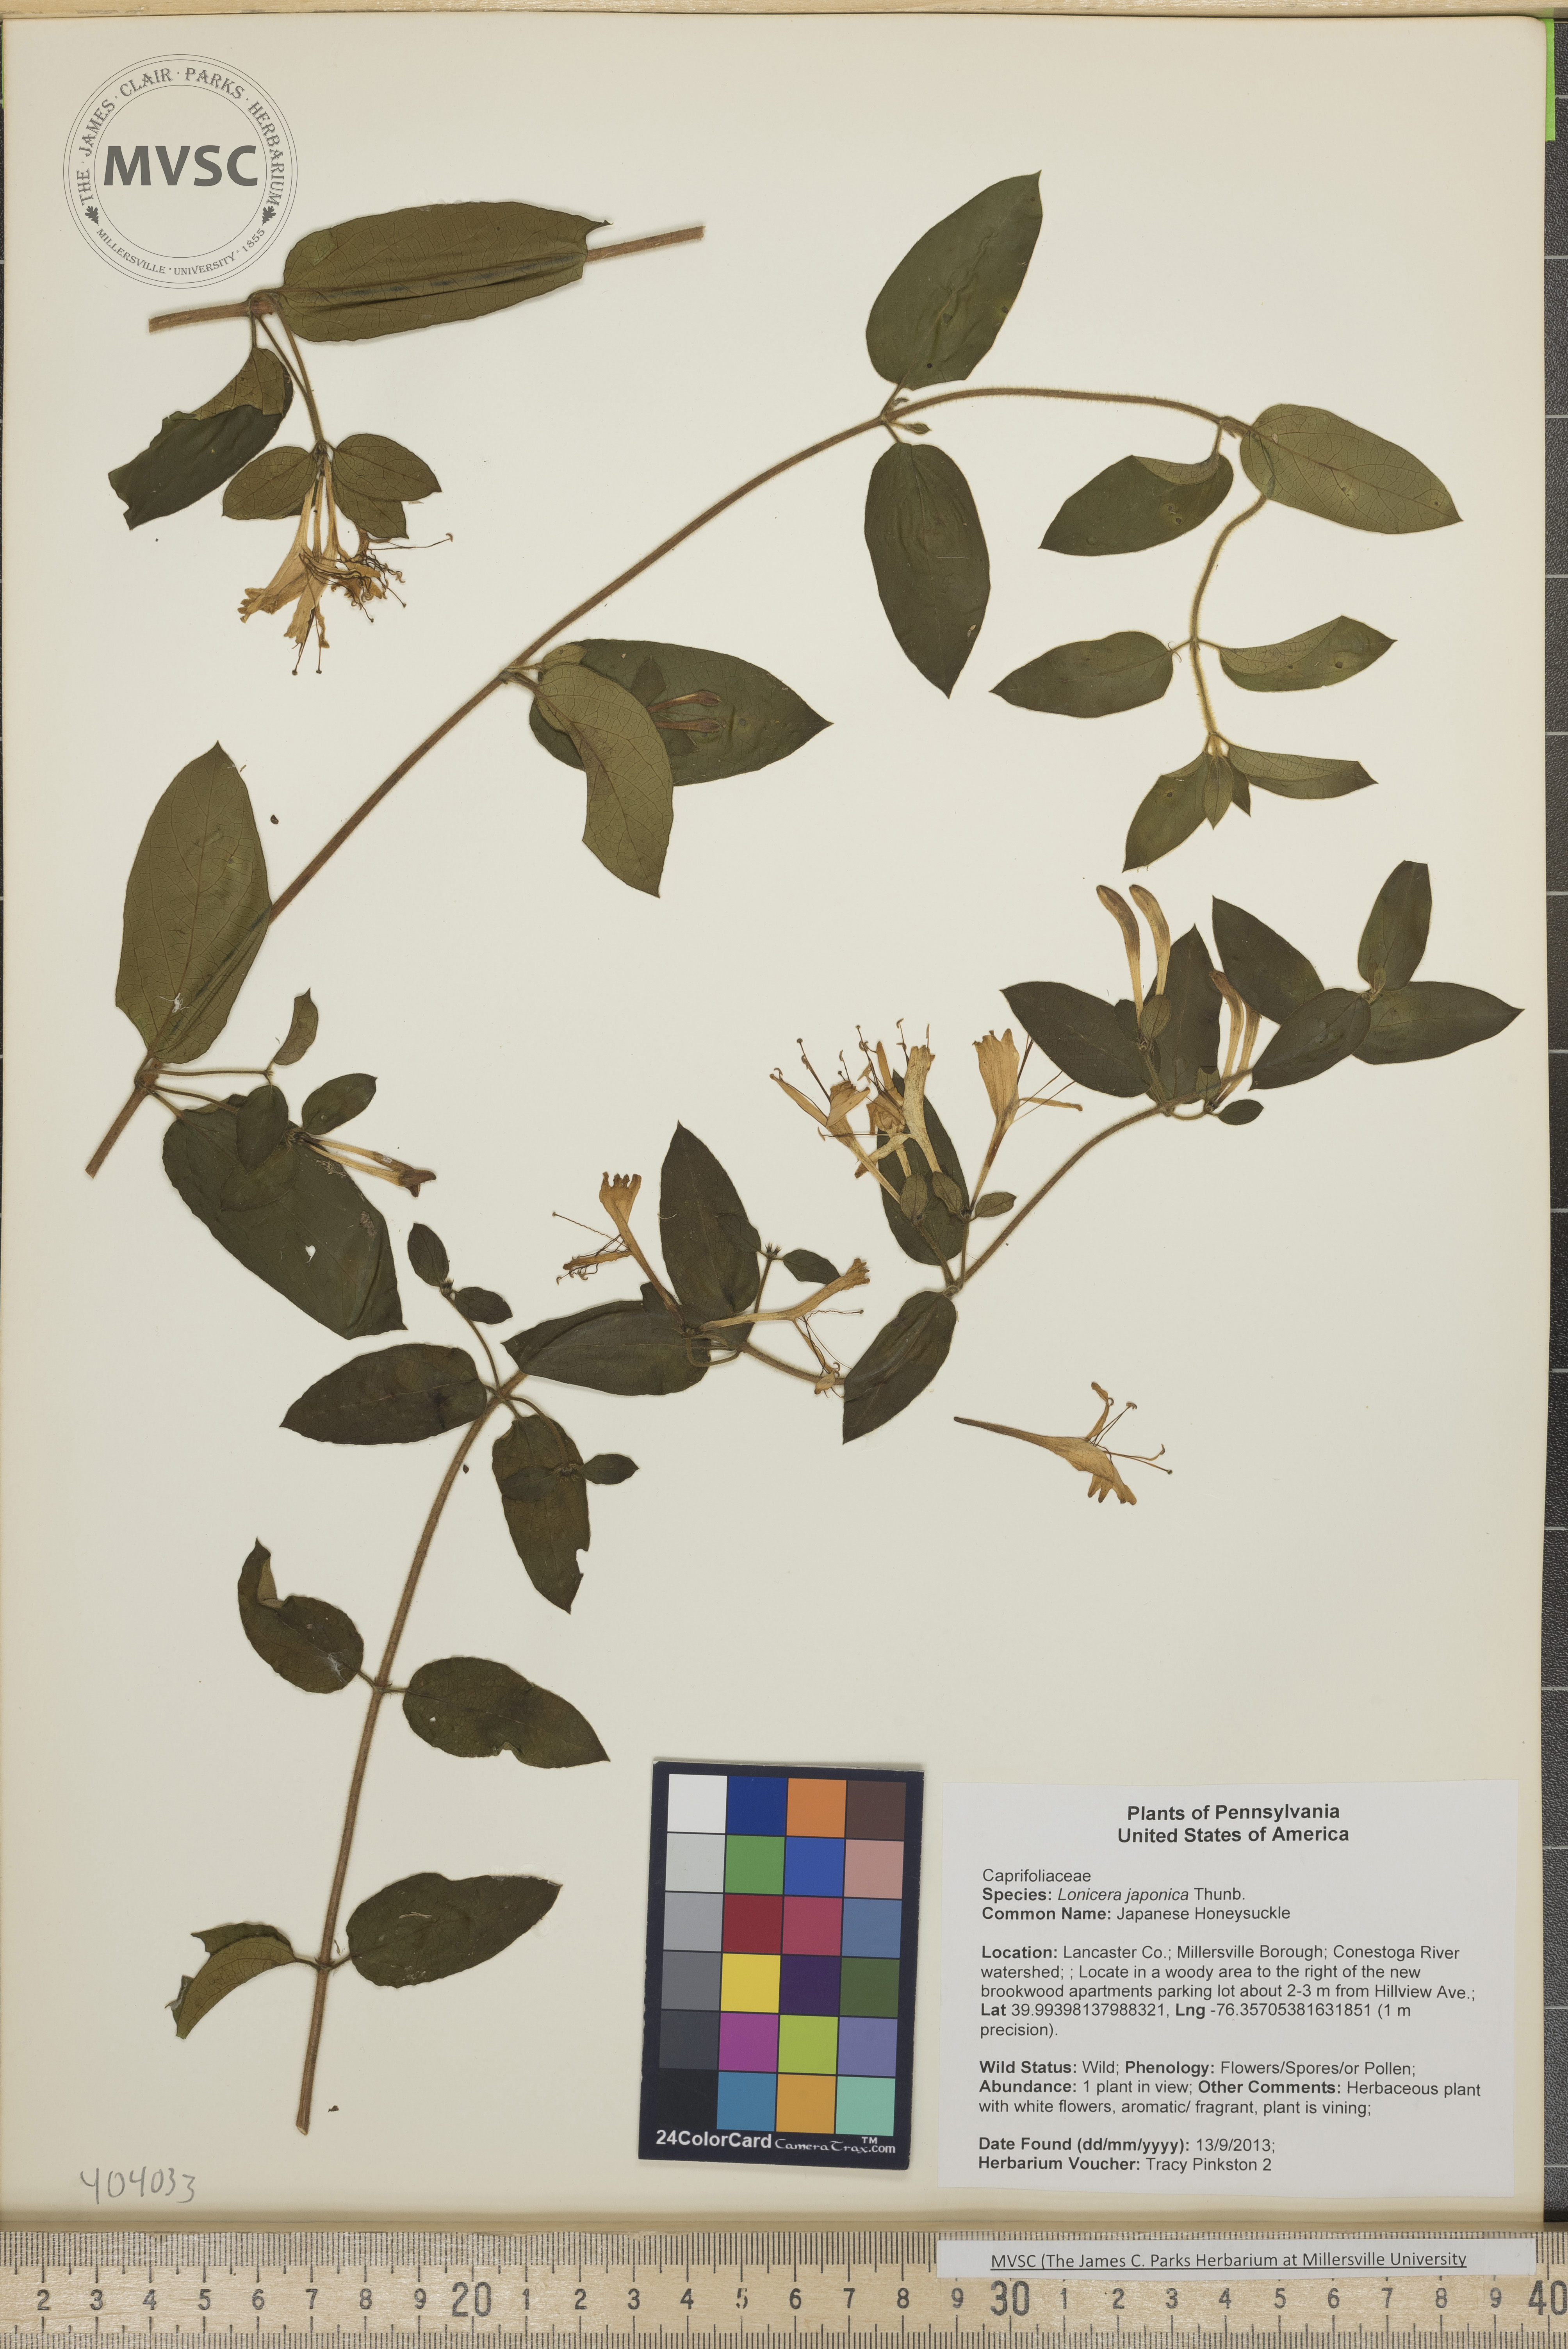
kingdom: Plantae
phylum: Tracheophyta
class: Magnoliopsida
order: Dipsacales
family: Caprifoliaceae
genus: Lonicera
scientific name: Lonicera japonica
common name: Japanese Honeysuckle
